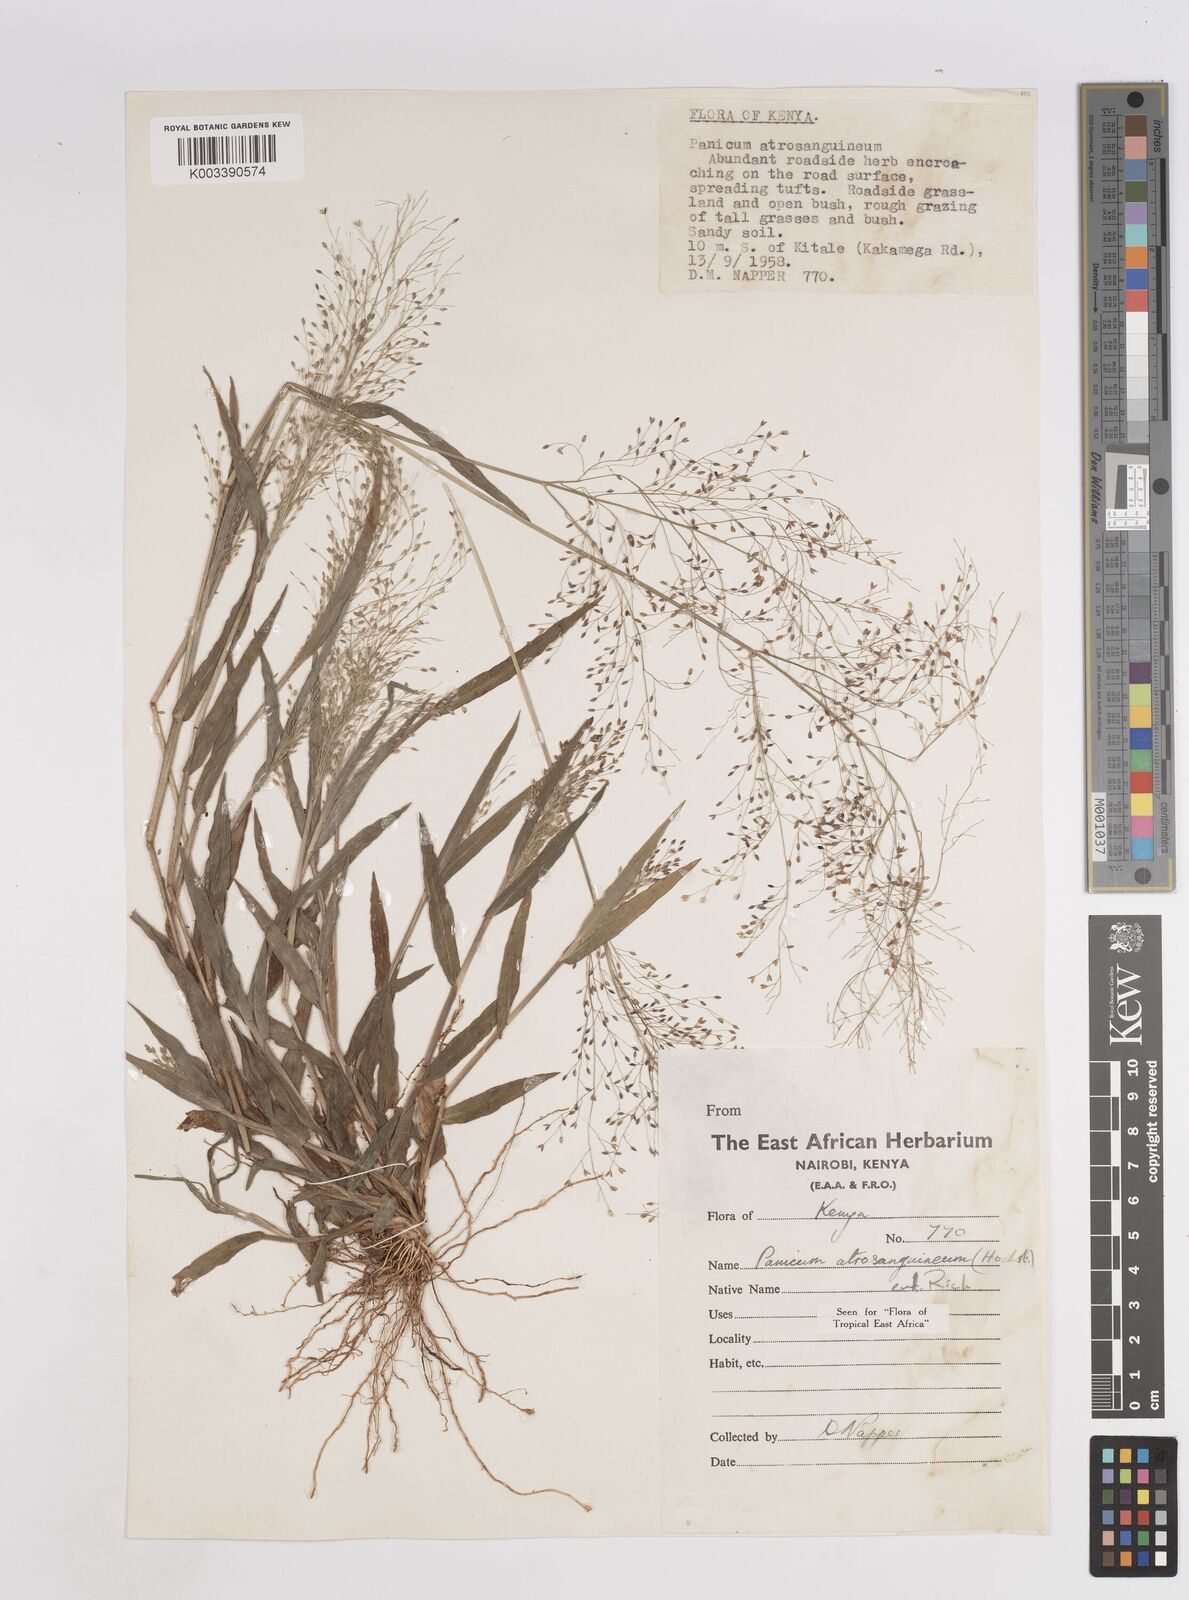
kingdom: Plantae
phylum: Tracheophyta
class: Liliopsida
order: Poales
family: Poaceae
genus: Panicum
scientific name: Panicum atrosanguineum
